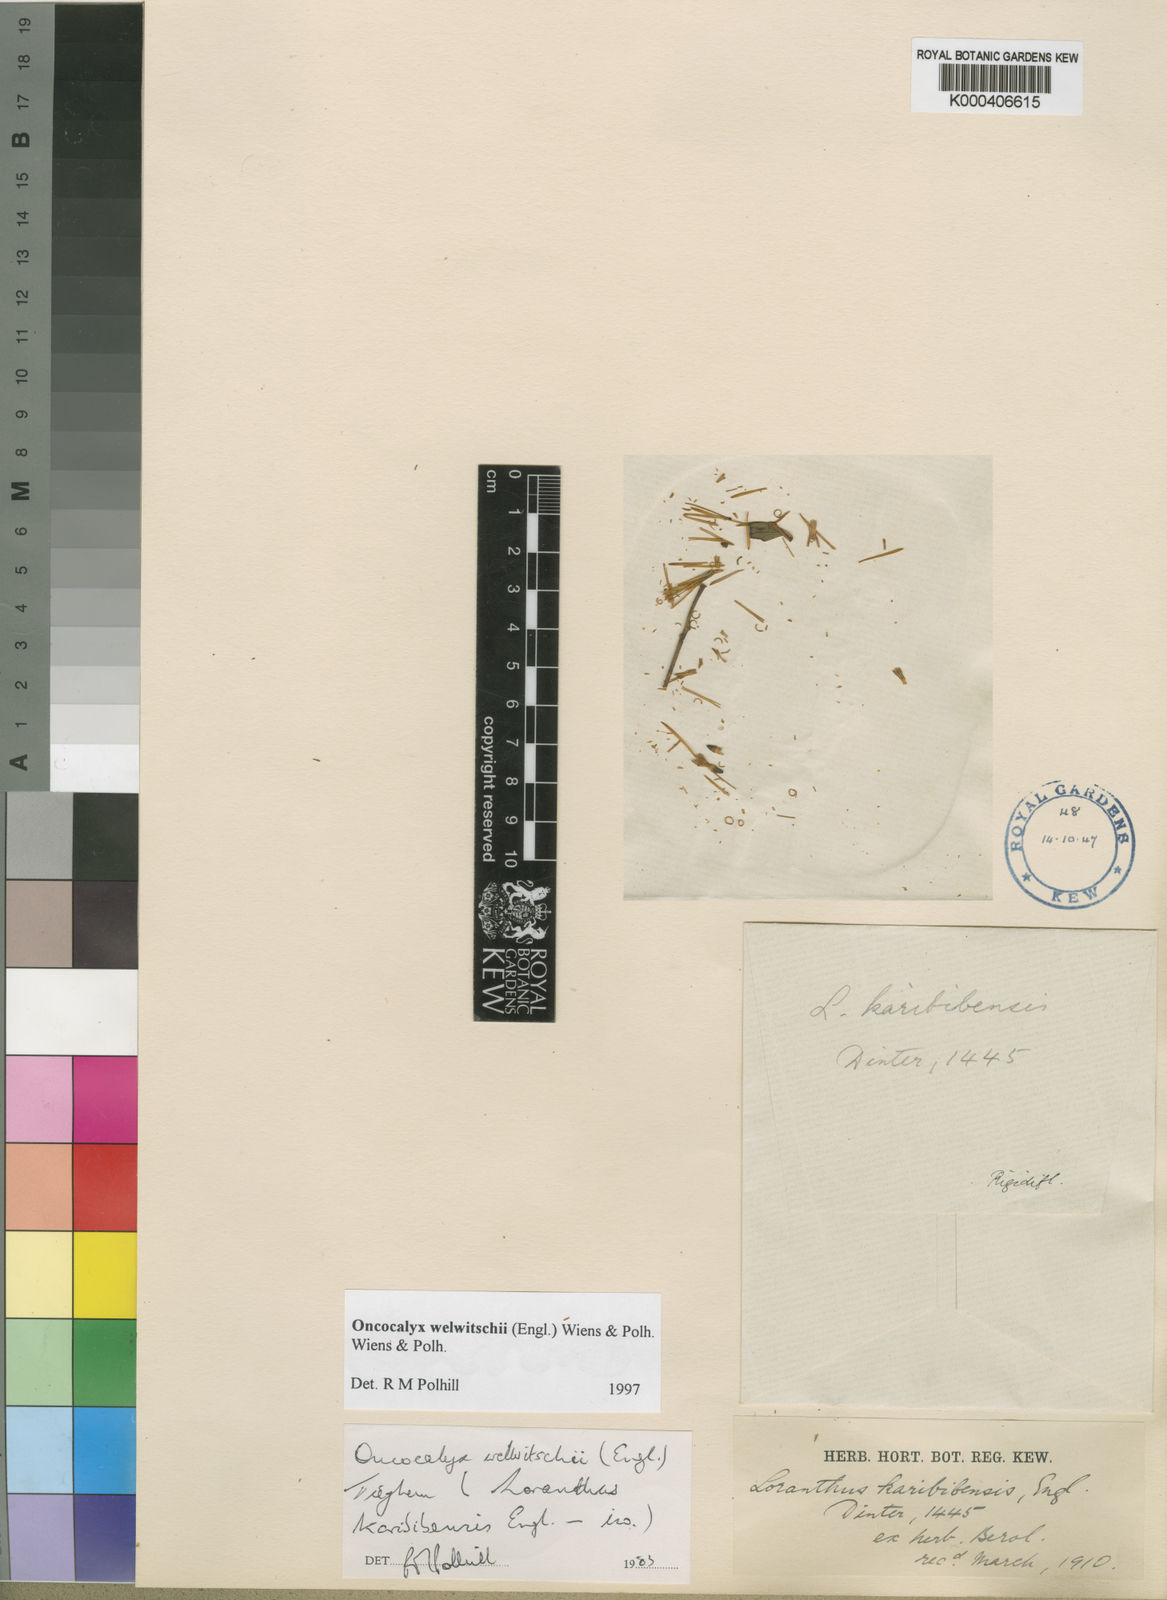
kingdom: Plantae
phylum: Tracheophyta
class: Magnoliopsida
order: Santalales
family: Loranthaceae
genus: Loranthella
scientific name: Loranthella welwitschii
